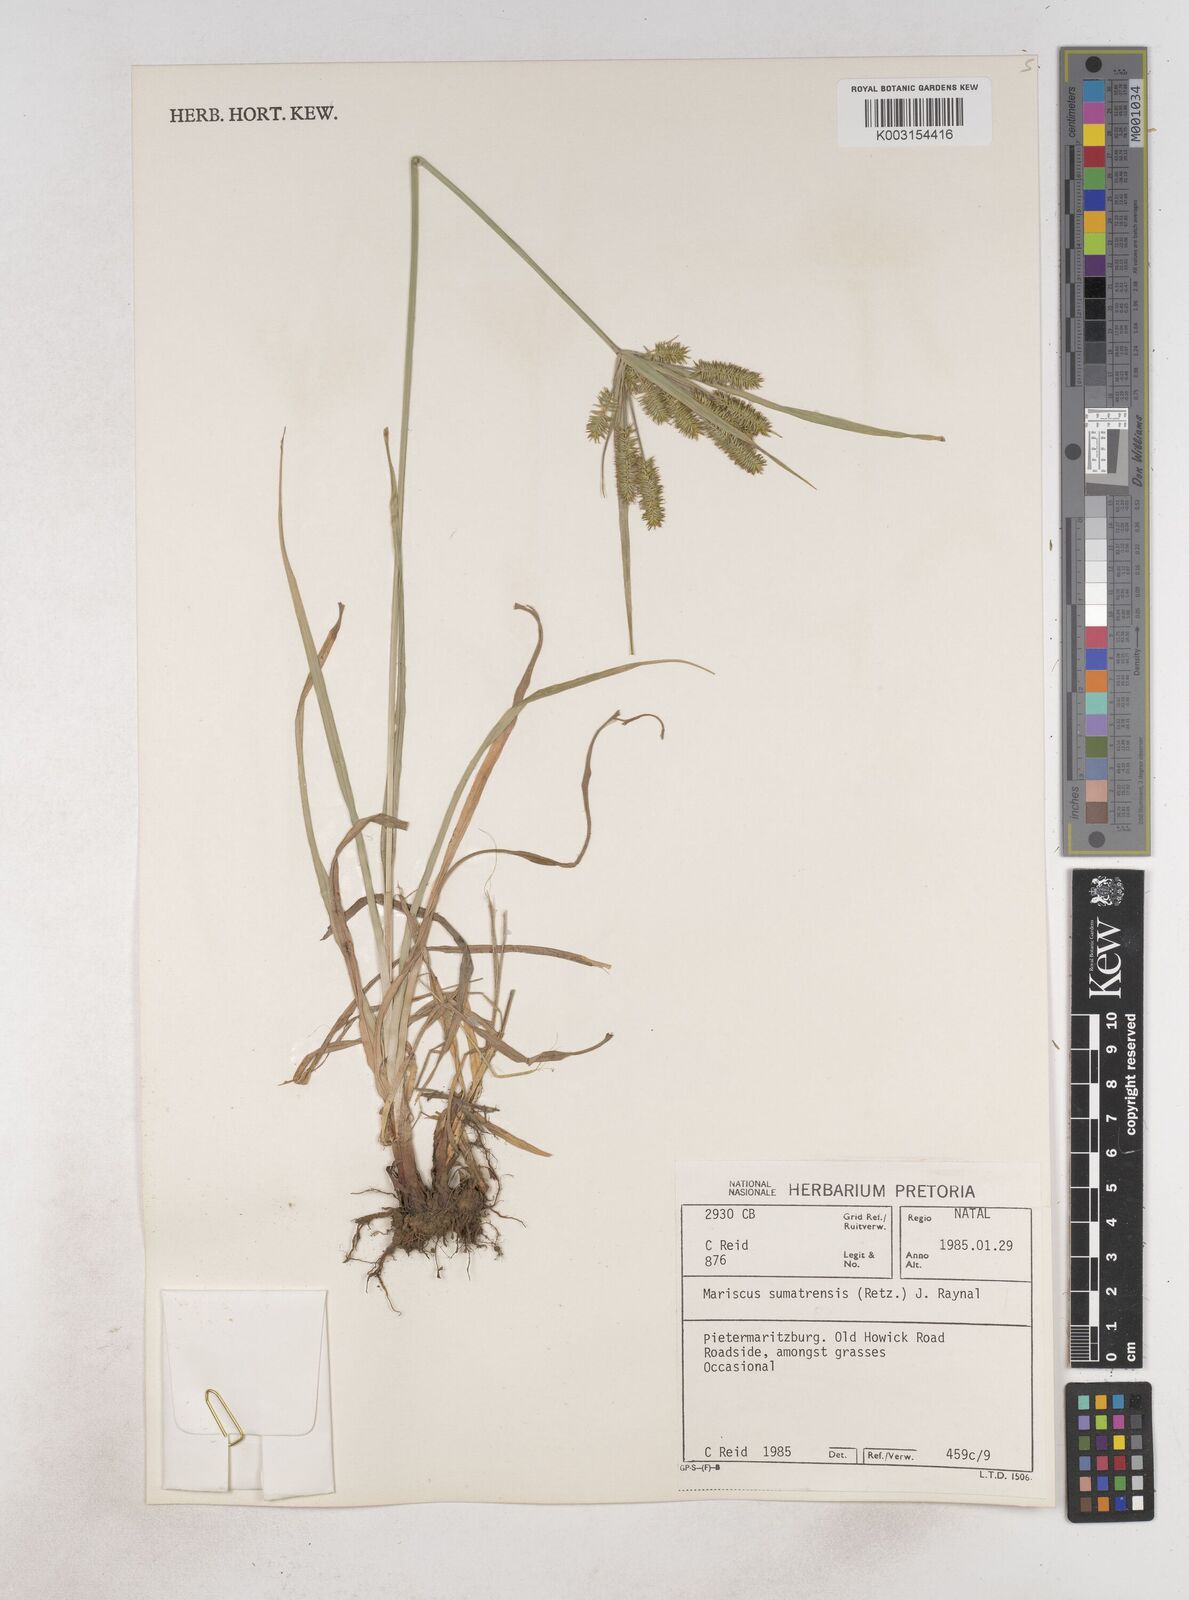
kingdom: Plantae
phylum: Tracheophyta
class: Liliopsida
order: Poales
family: Cyperaceae
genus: Cyperus
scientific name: Cyperus cyperoides
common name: Pacific island flat sedge
